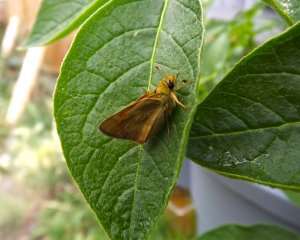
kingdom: Animalia
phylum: Arthropoda
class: Insecta
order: Lepidoptera
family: Hesperiidae
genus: Ochlodes
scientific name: Ochlodes sylvanoides
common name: Woodland Skipper
